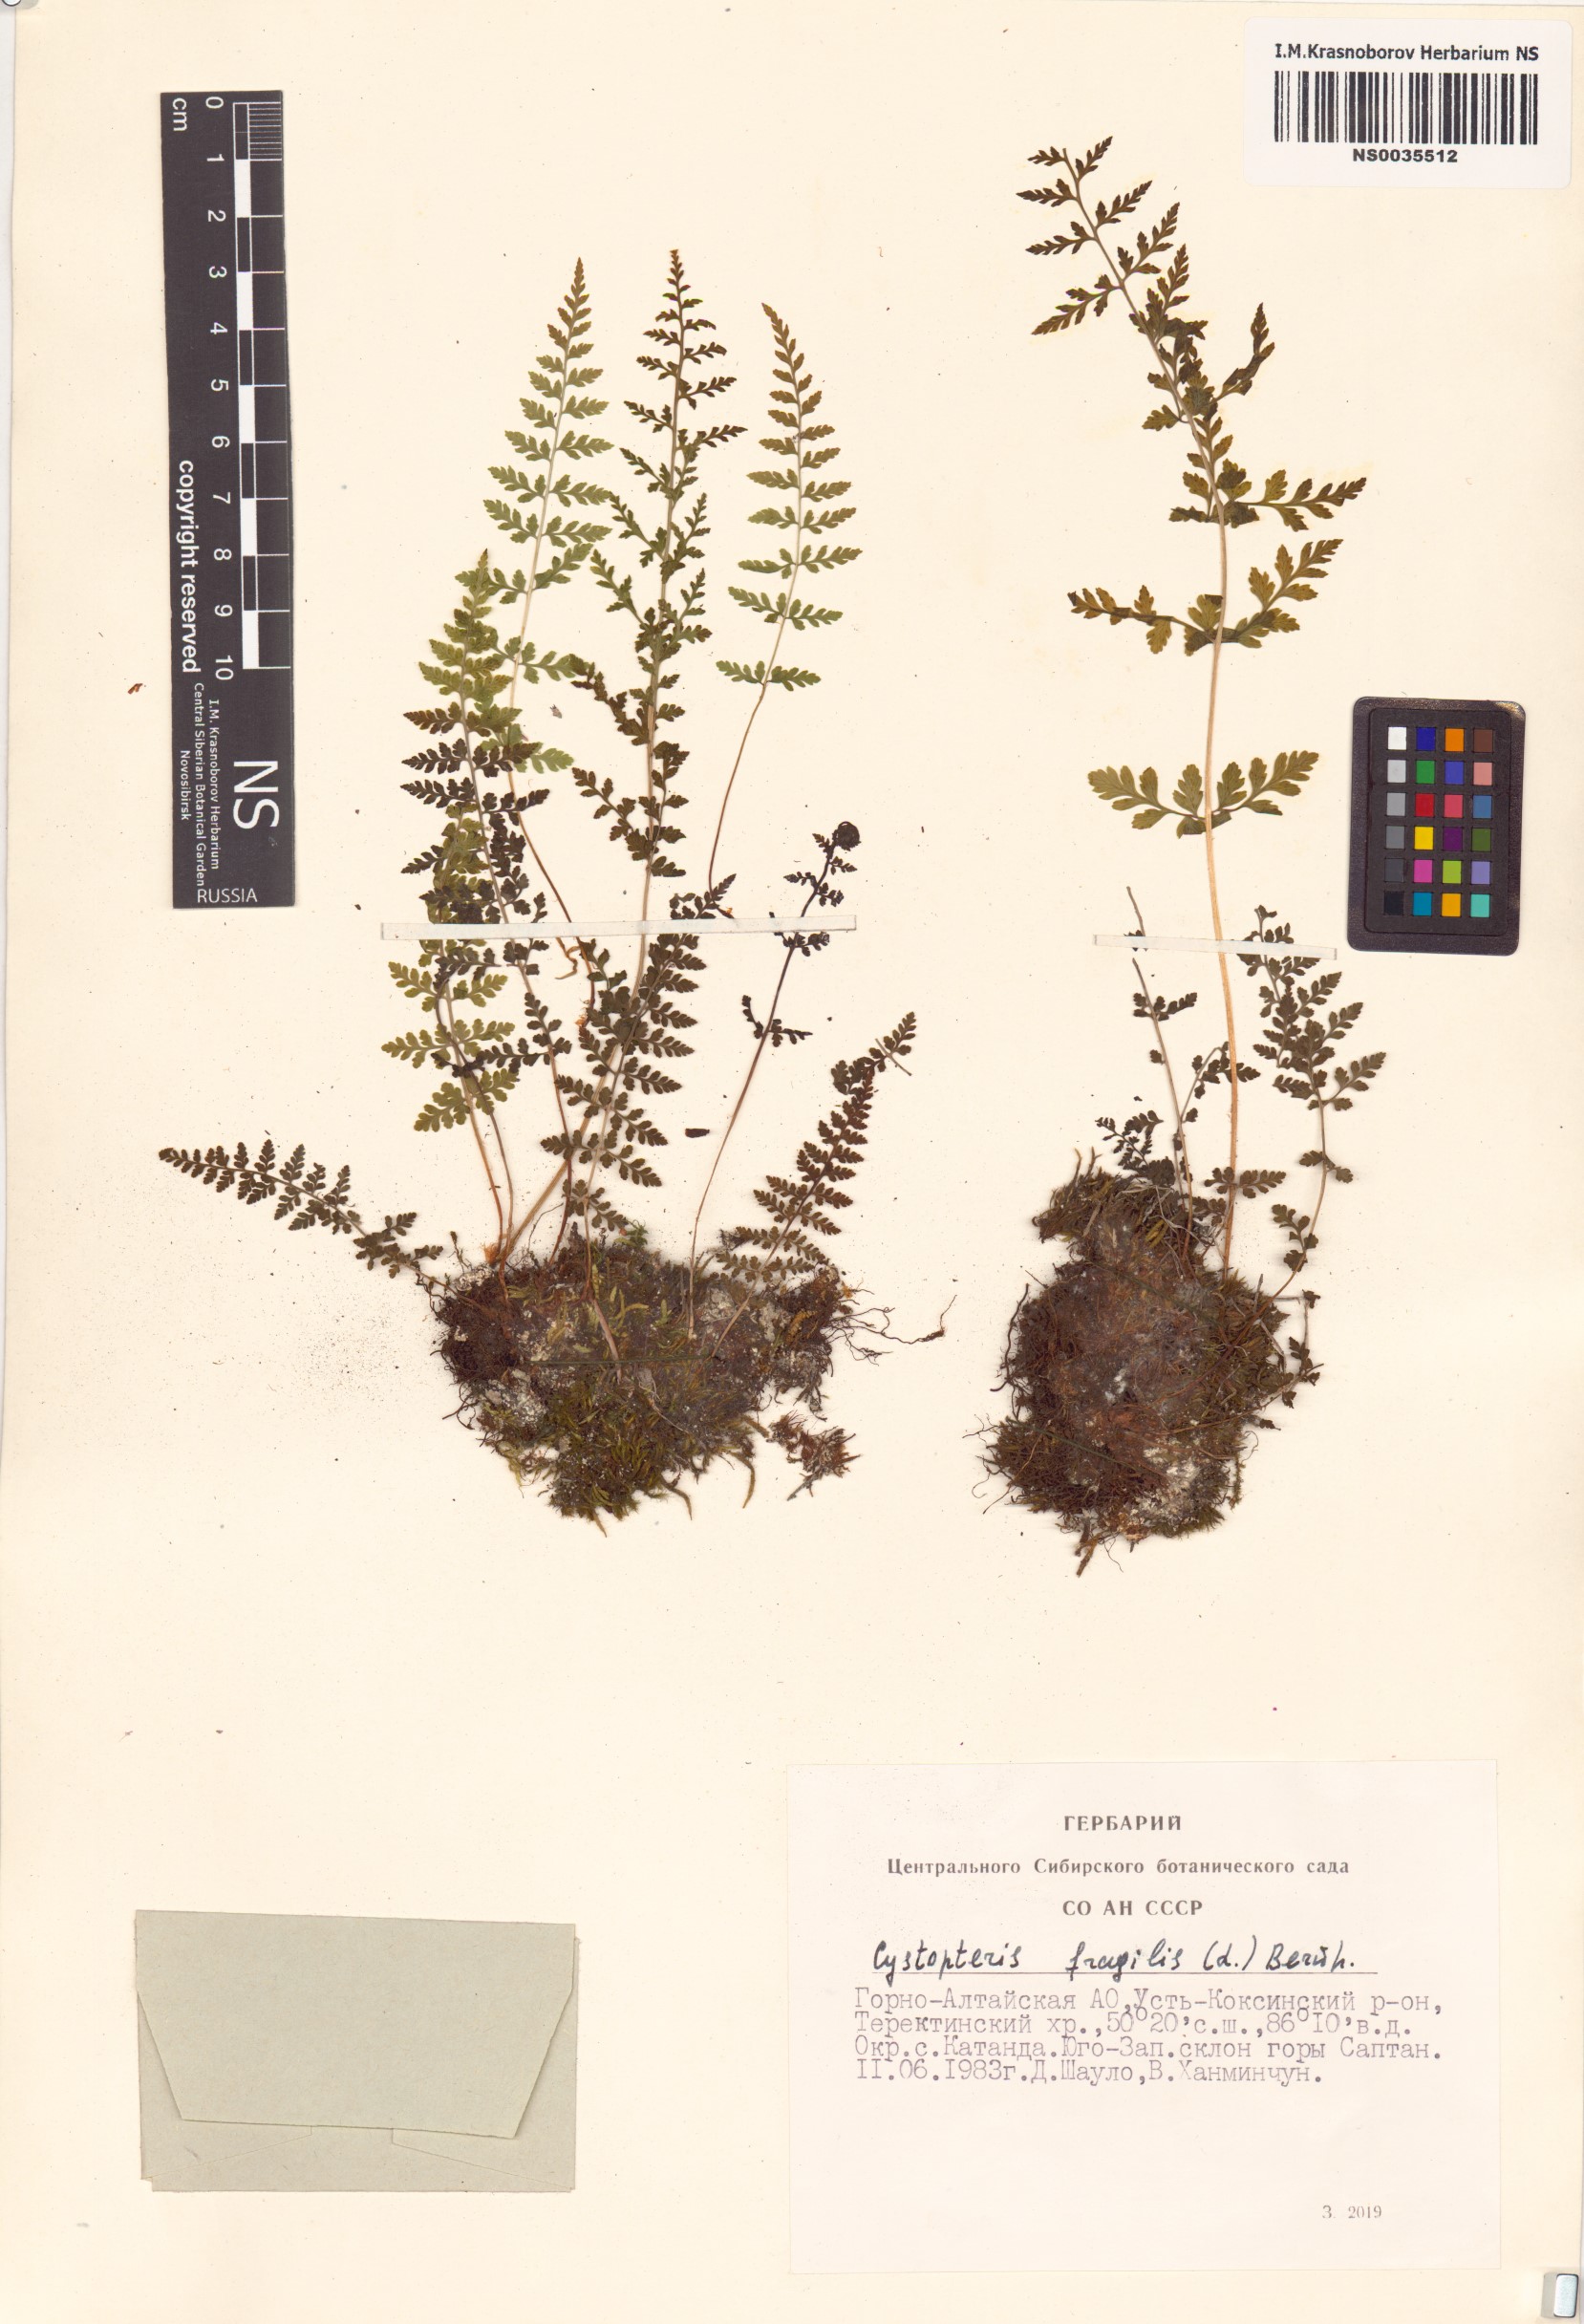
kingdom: Plantae
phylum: Tracheophyta
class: Polypodiopsida
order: Polypodiales
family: Cystopteridaceae
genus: Cystopteris
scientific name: Cystopteris fragilis
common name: Brittle bladder fern
